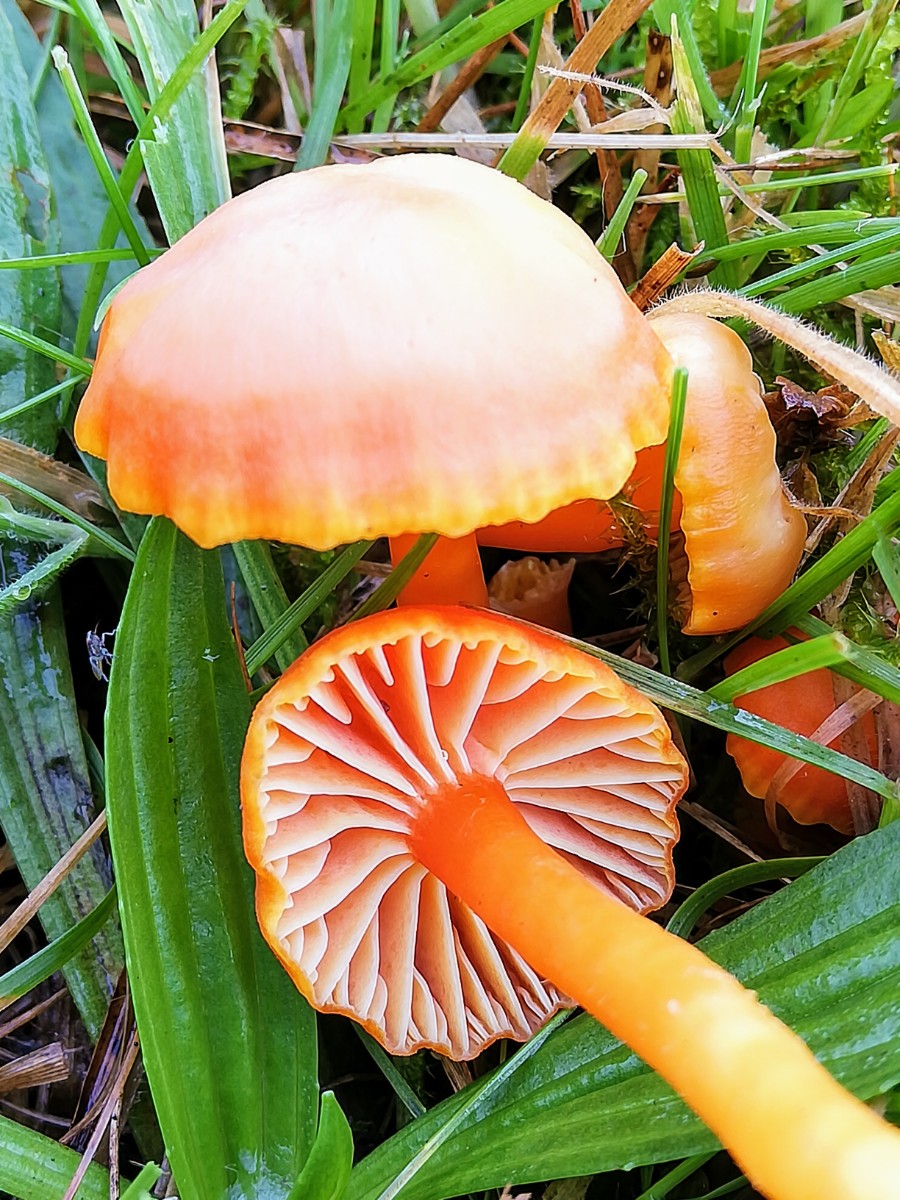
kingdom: Fungi
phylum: Basidiomycota
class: Agaricomycetes
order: Agaricales
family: Hygrophoraceae
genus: Hygrocybe
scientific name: Hygrocybe reidii
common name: honning-vokshat
